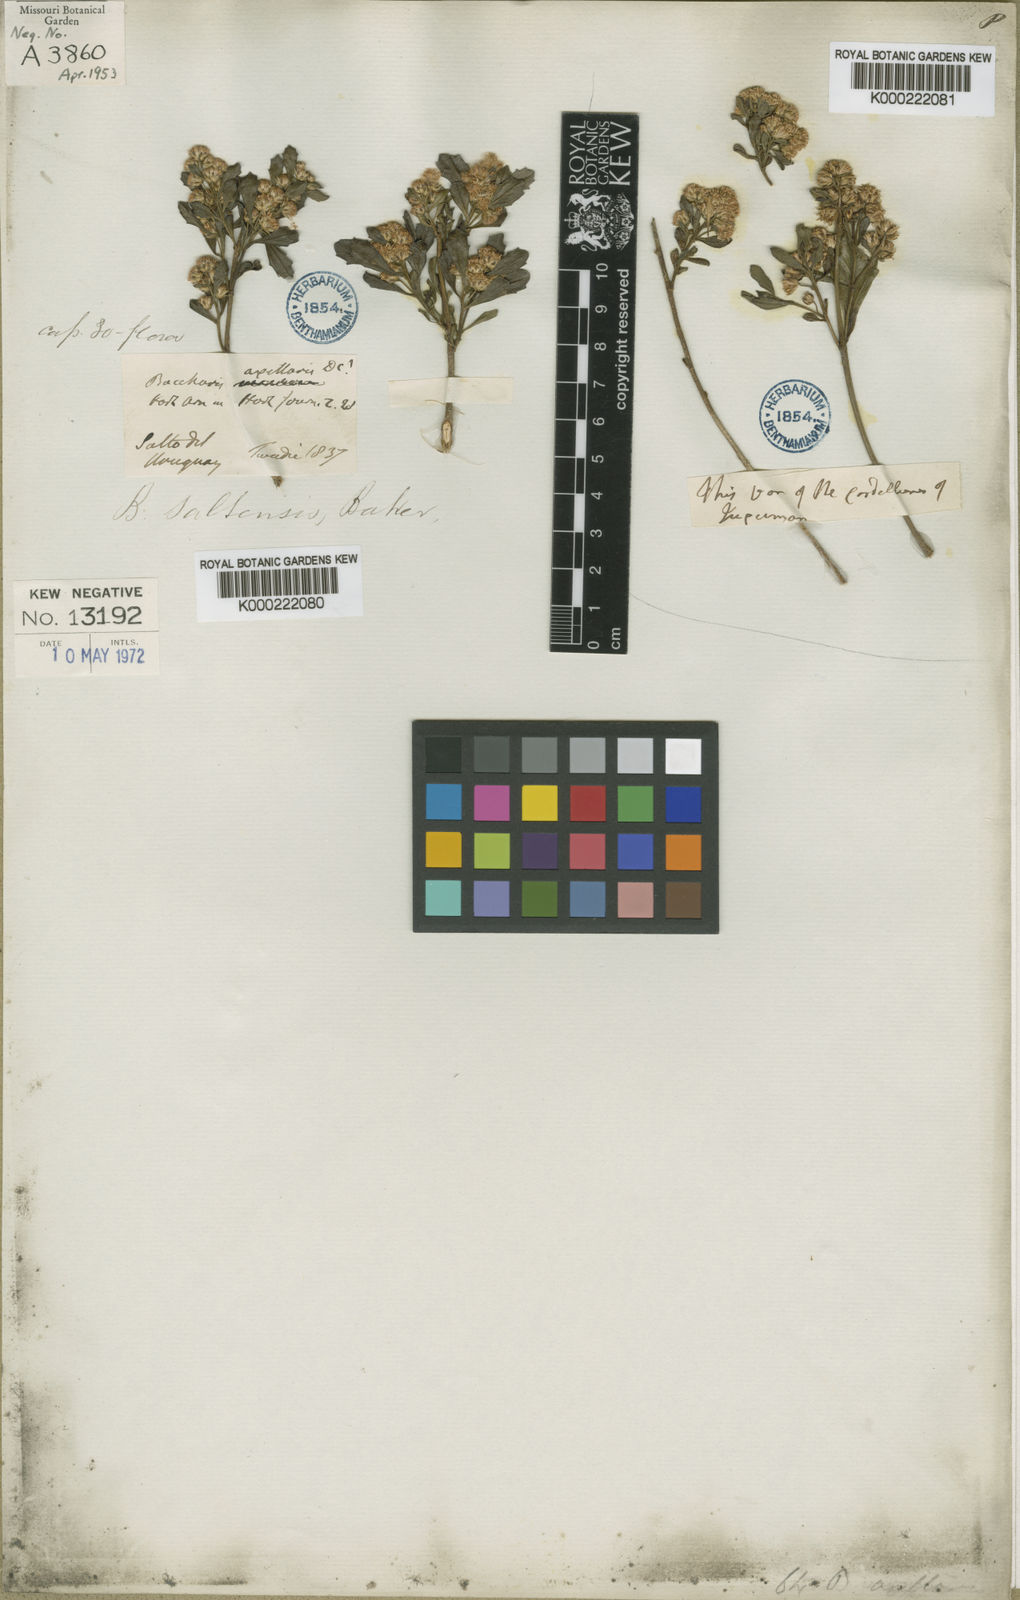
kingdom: Plantae
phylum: Tracheophyta
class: Magnoliopsida
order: Asterales
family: Asteraceae
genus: Baccharis
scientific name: Baccharis subopposita
